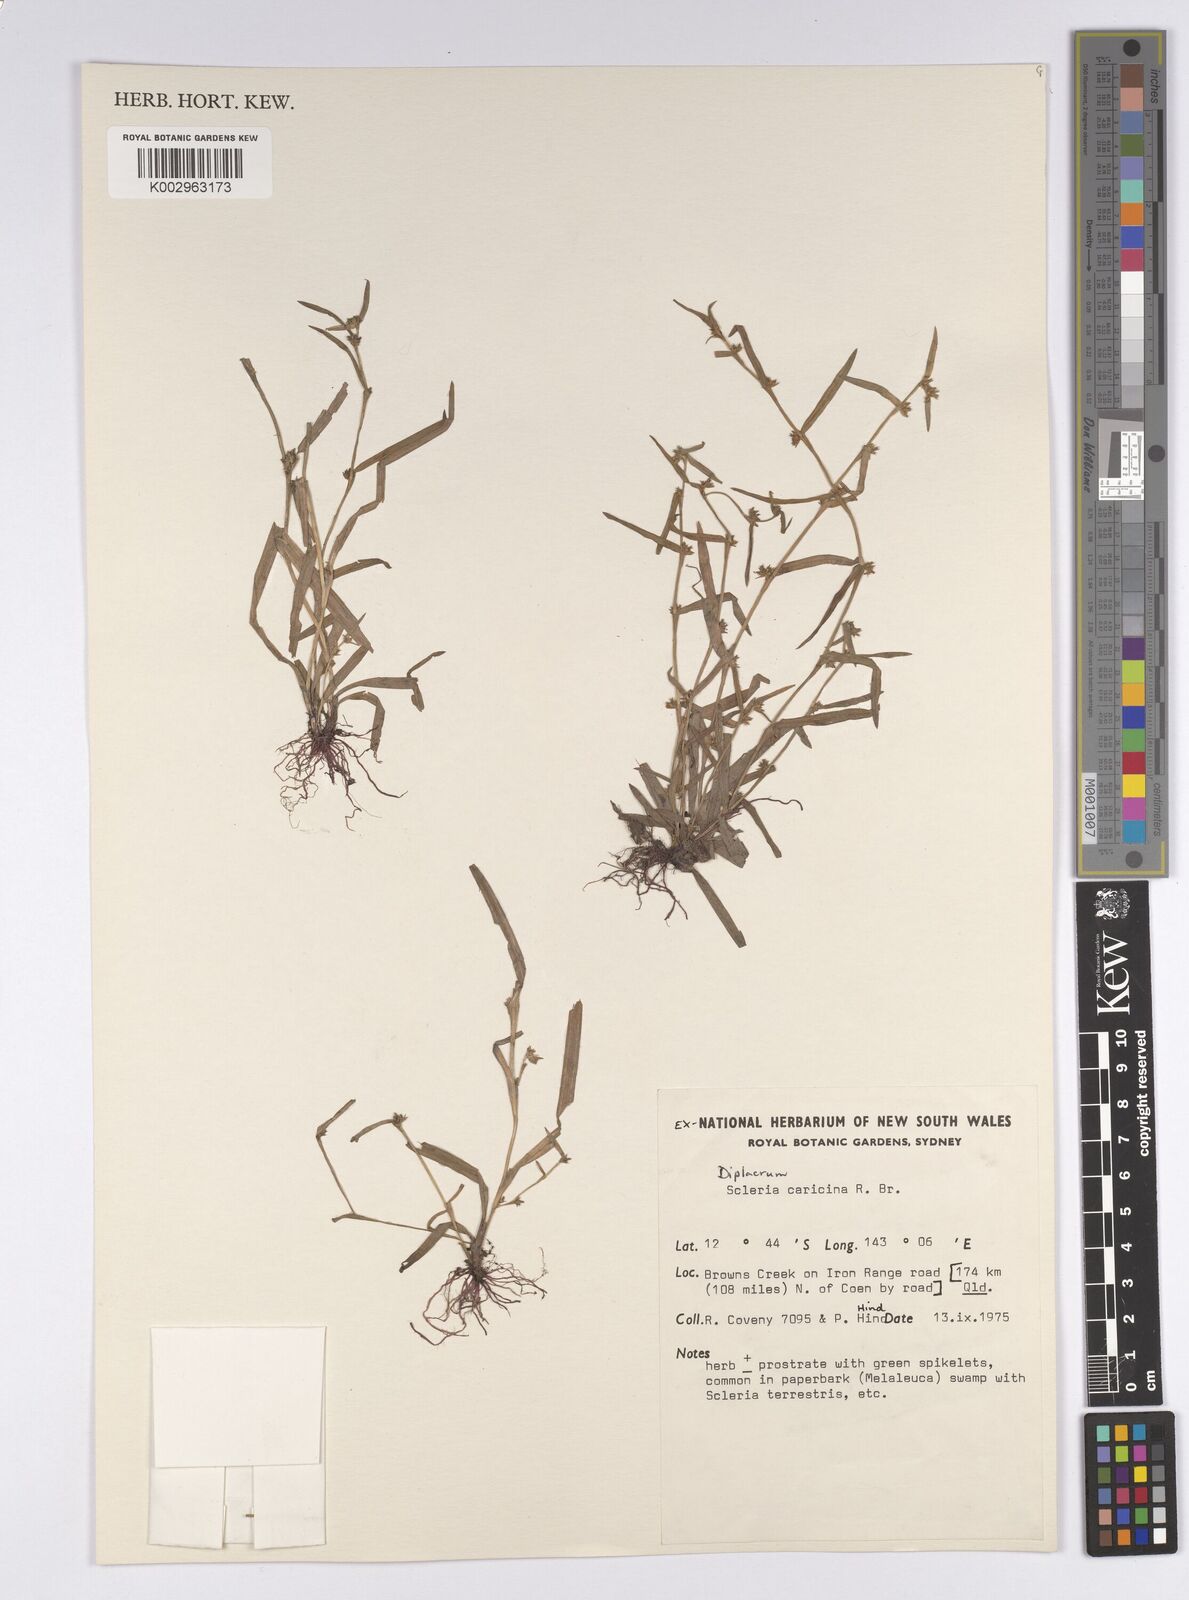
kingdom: Plantae
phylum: Tracheophyta
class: Liliopsida
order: Poales
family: Cyperaceae
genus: Diplacrum
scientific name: Diplacrum caricinum
